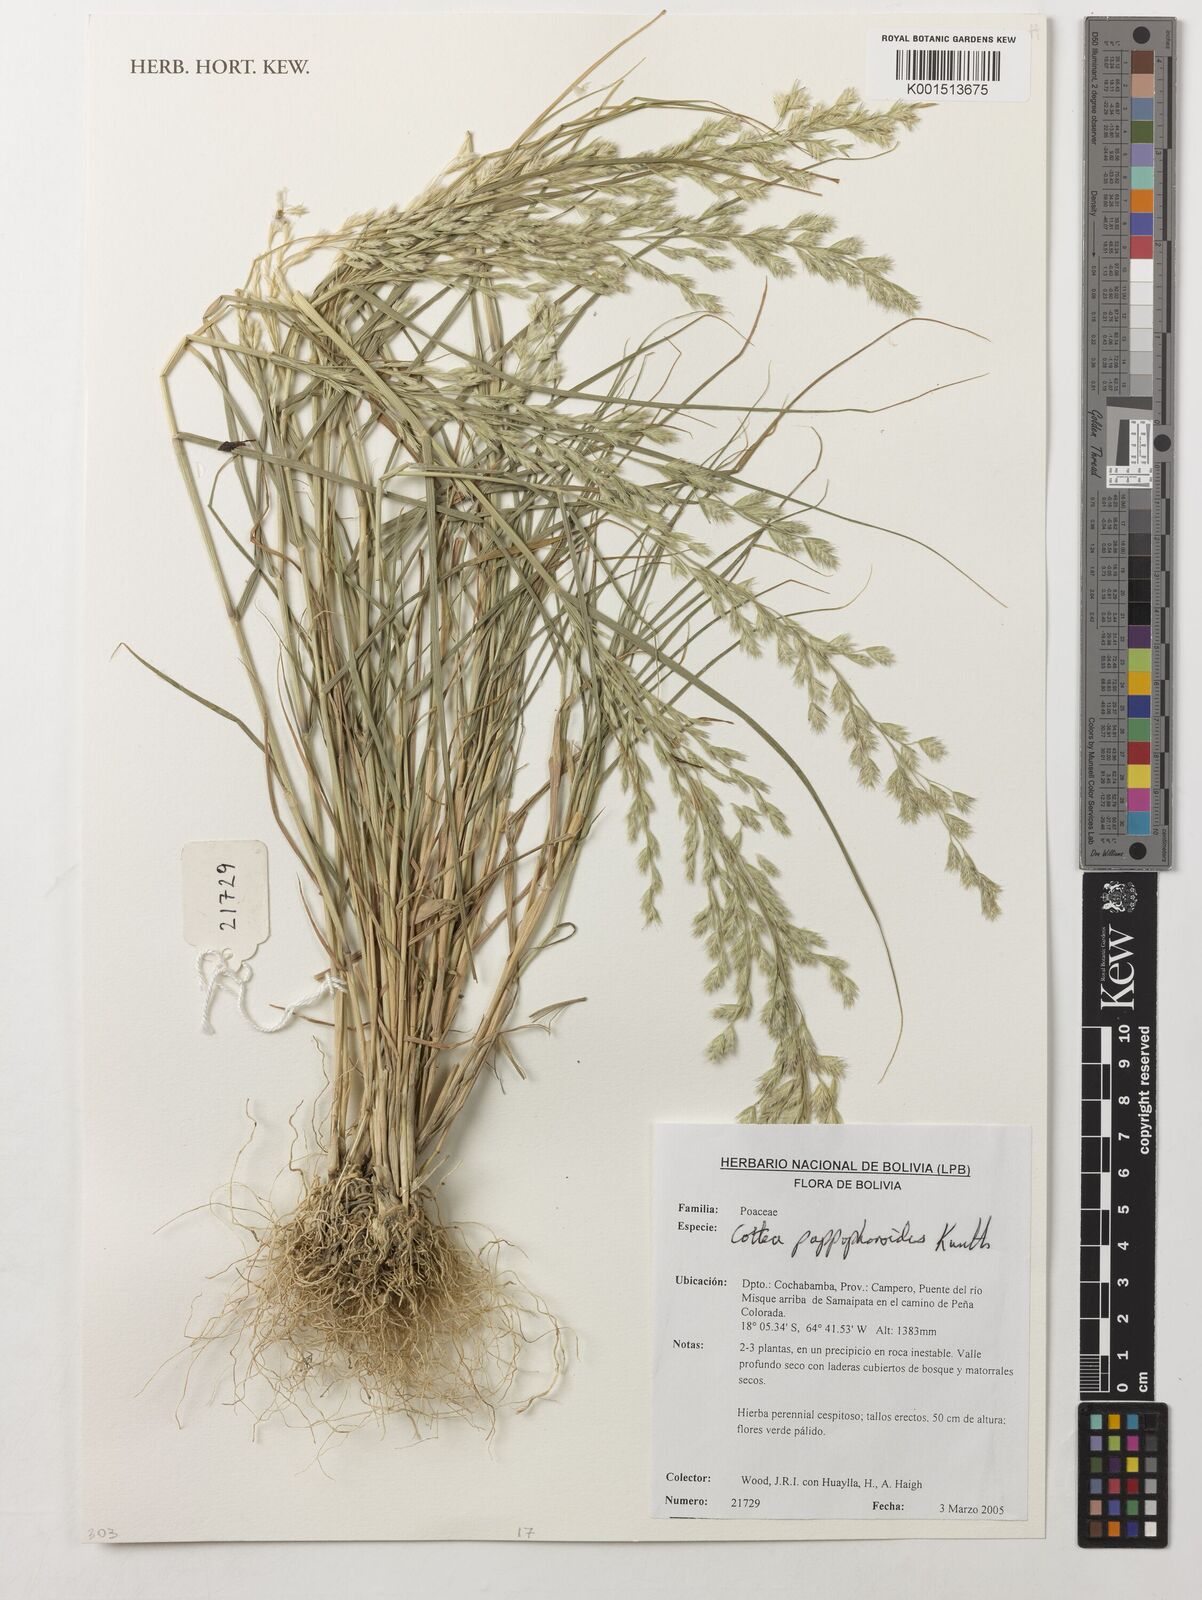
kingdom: Plantae
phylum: Tracheophyta
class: Liliopsida
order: Poales
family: Poaceae
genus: Cottea
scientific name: Cottea pappophoroides
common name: Cotta grass
